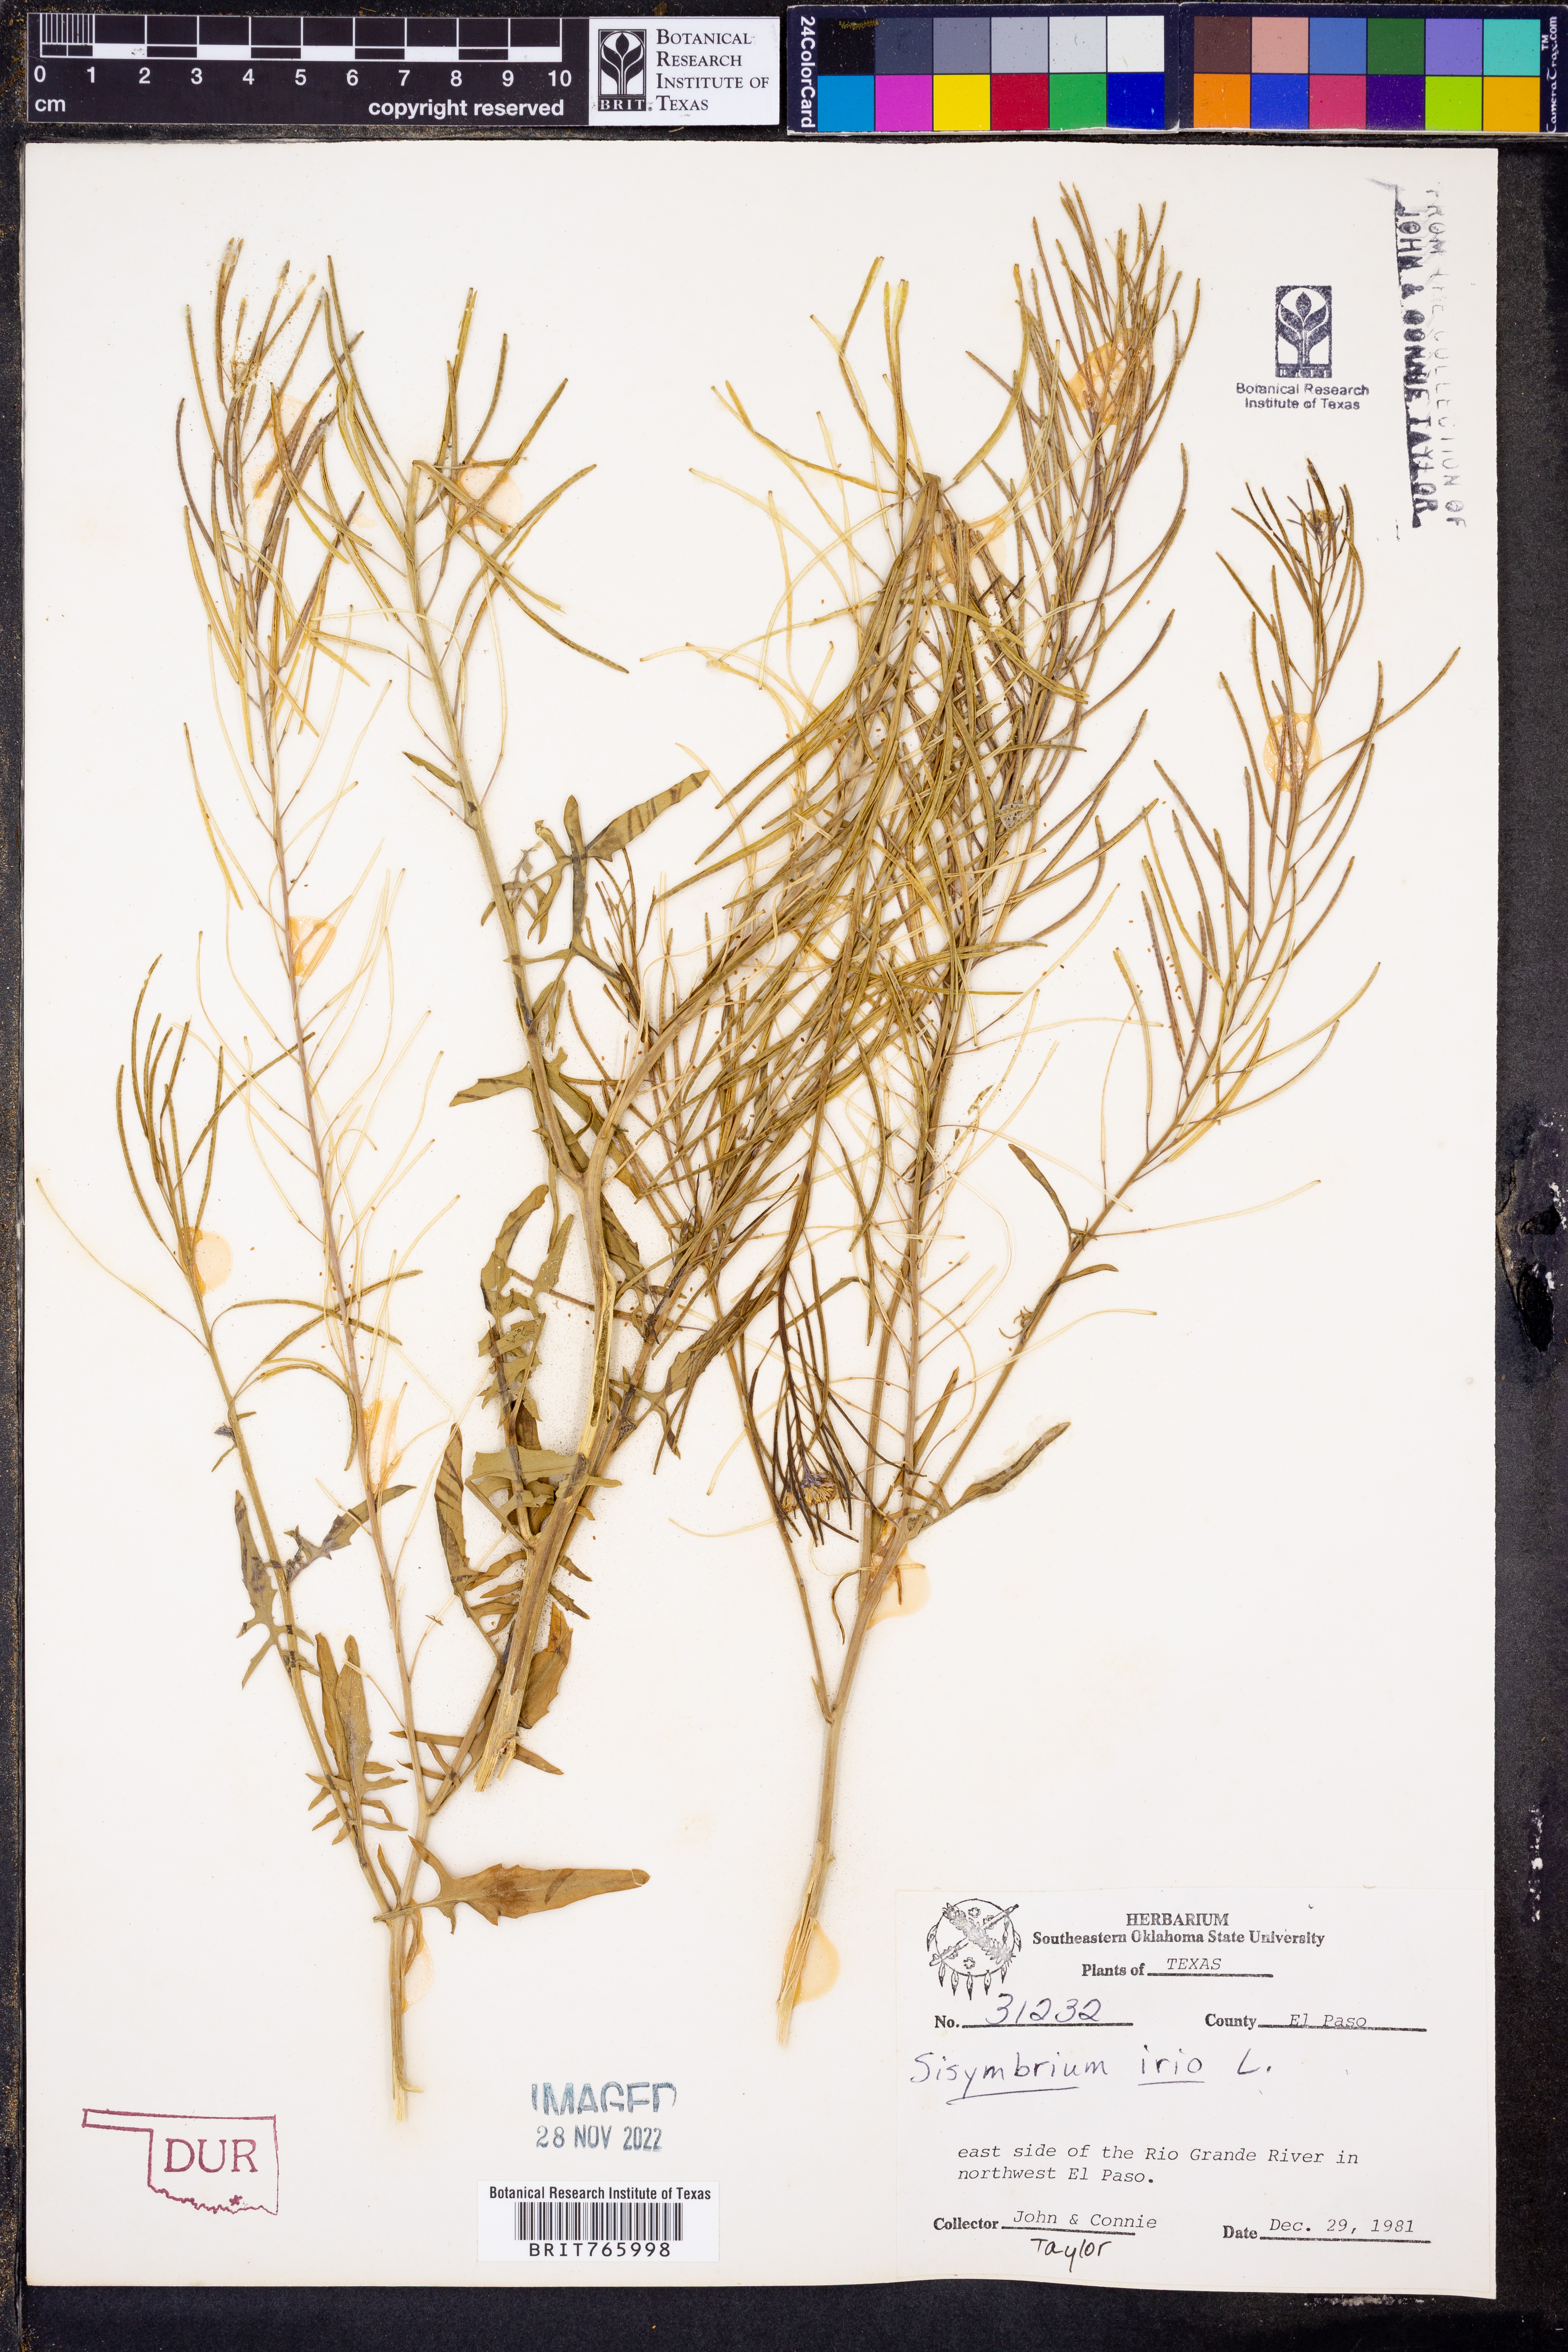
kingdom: Plantae
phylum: Tracheophyta
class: Magnoliopsida
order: Brassicales
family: Brassicaceae
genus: Sisymbrium
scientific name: Sisymbrium irio
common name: London rocket
